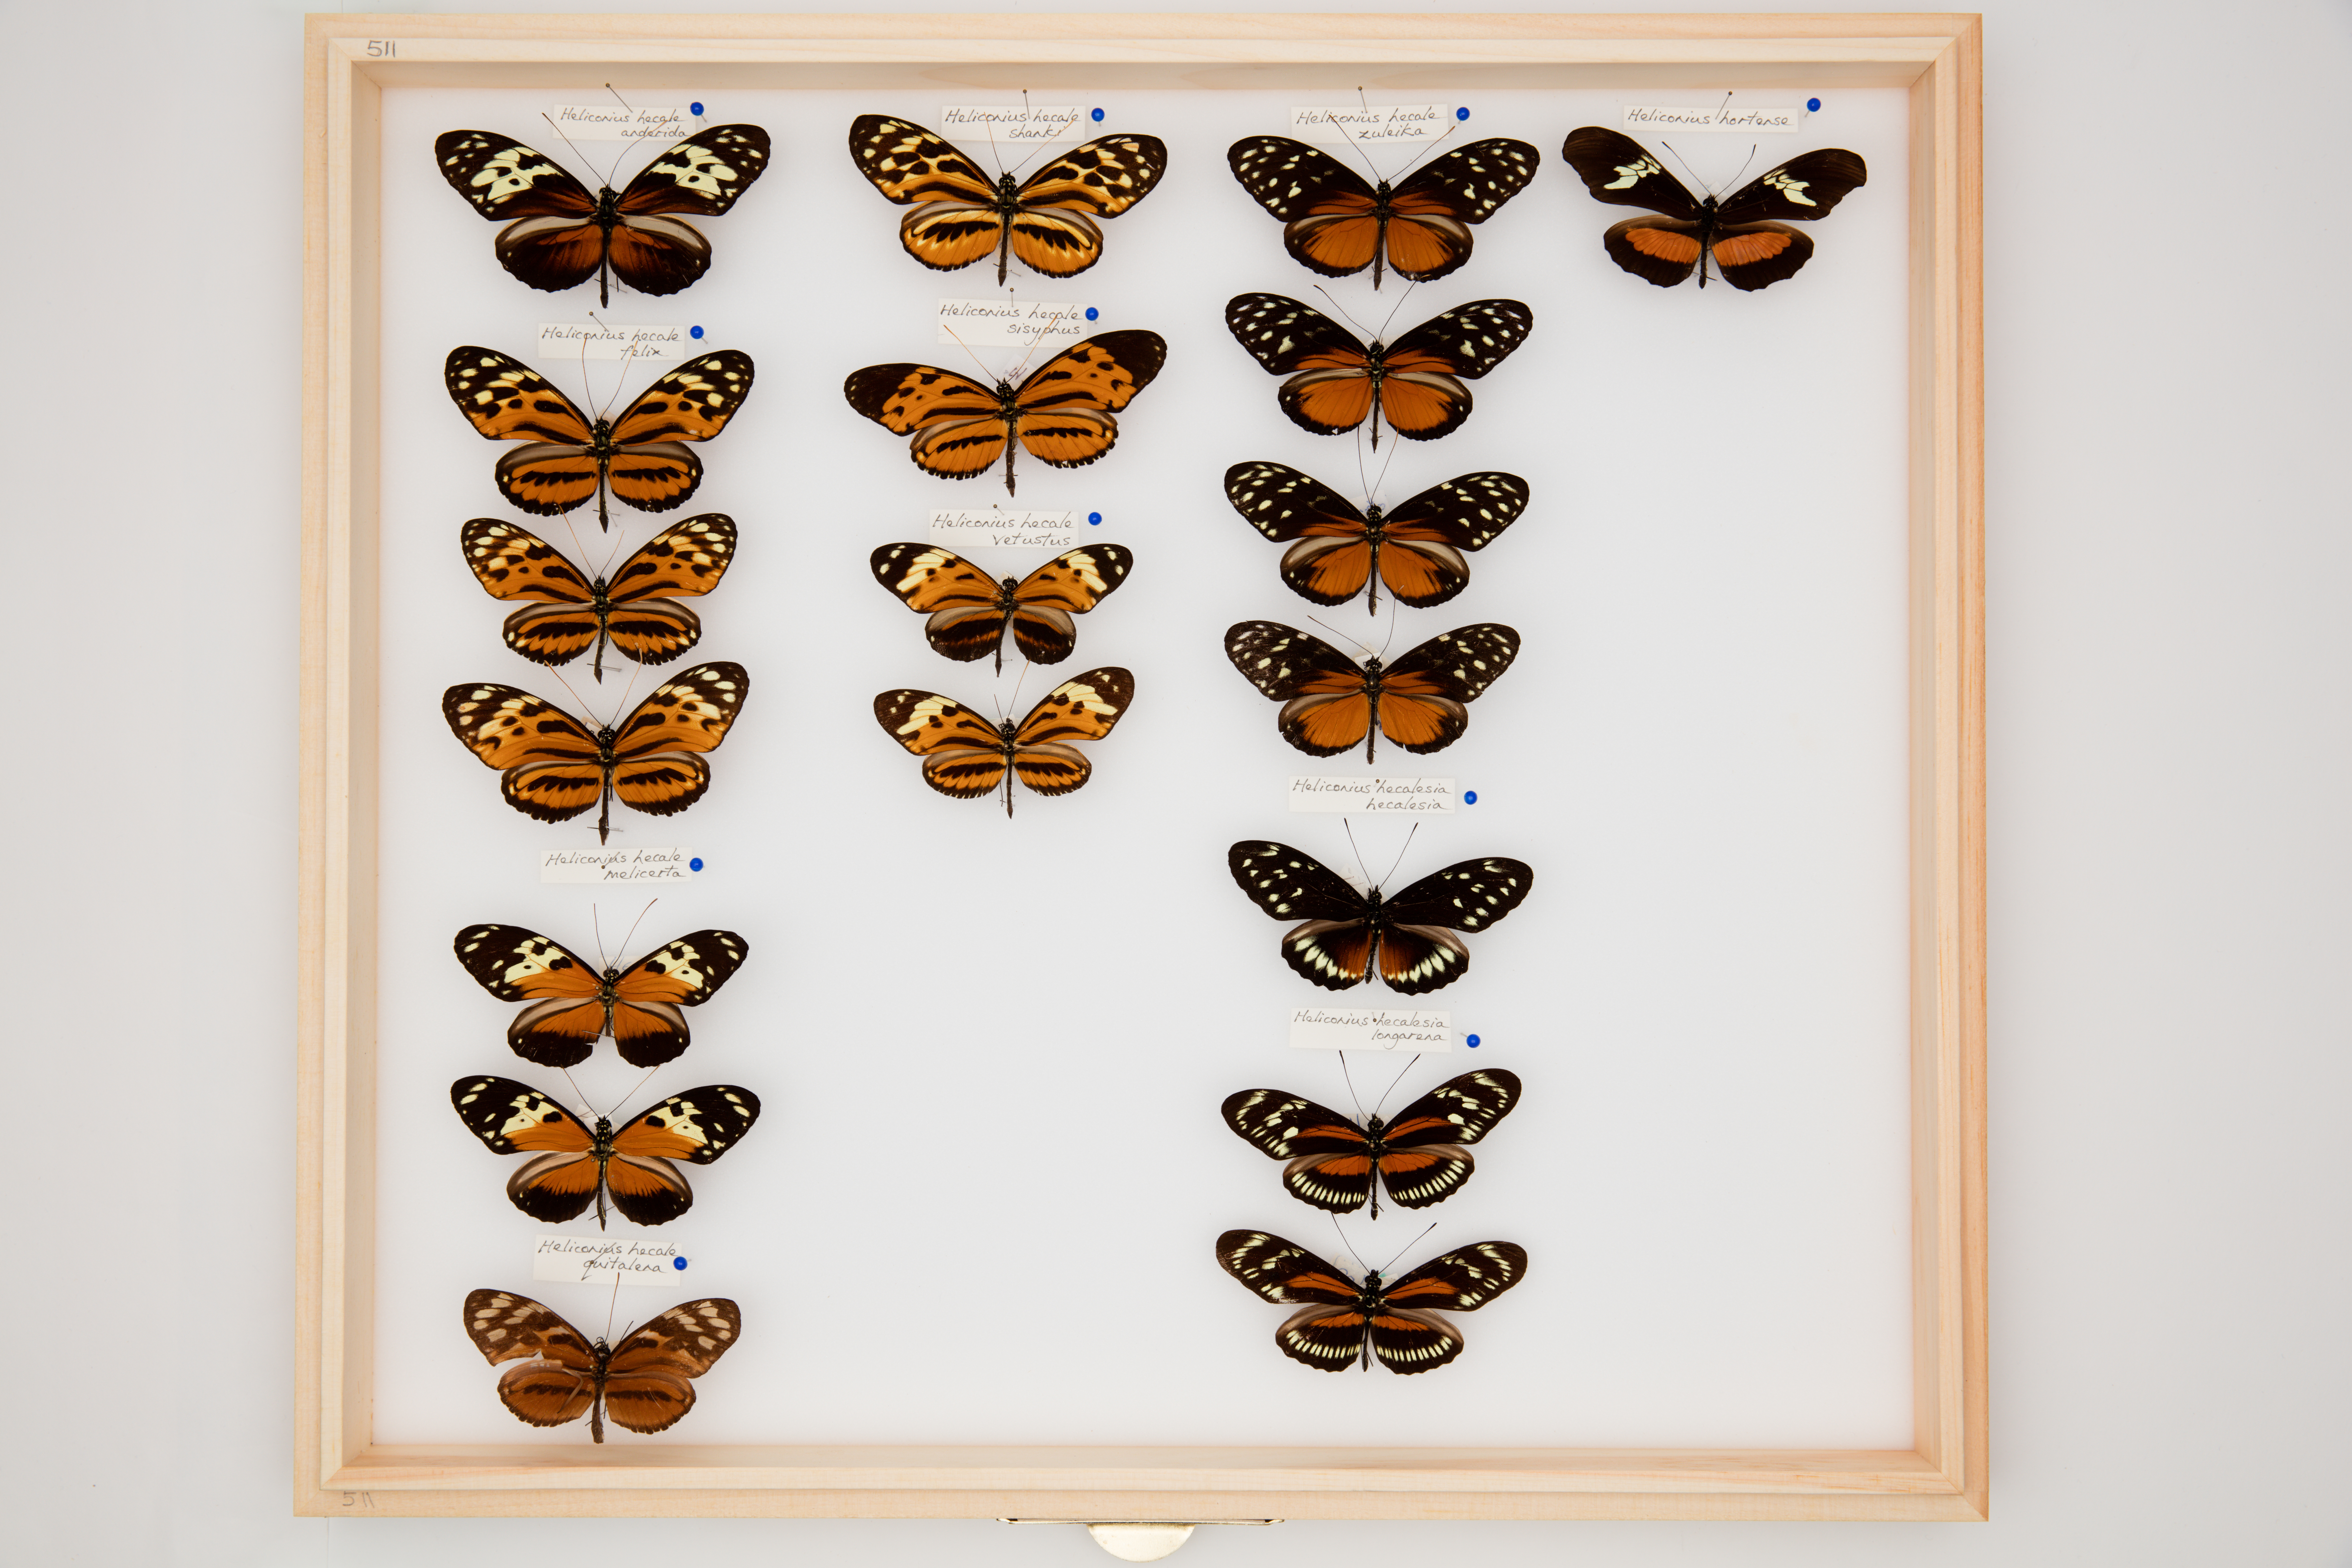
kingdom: Animalia
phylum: Arthropoda
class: Insecta
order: Lepidoptera
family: Nymphalidae
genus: Heliconius
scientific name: Heliconius hecale
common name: Tiger longwing
